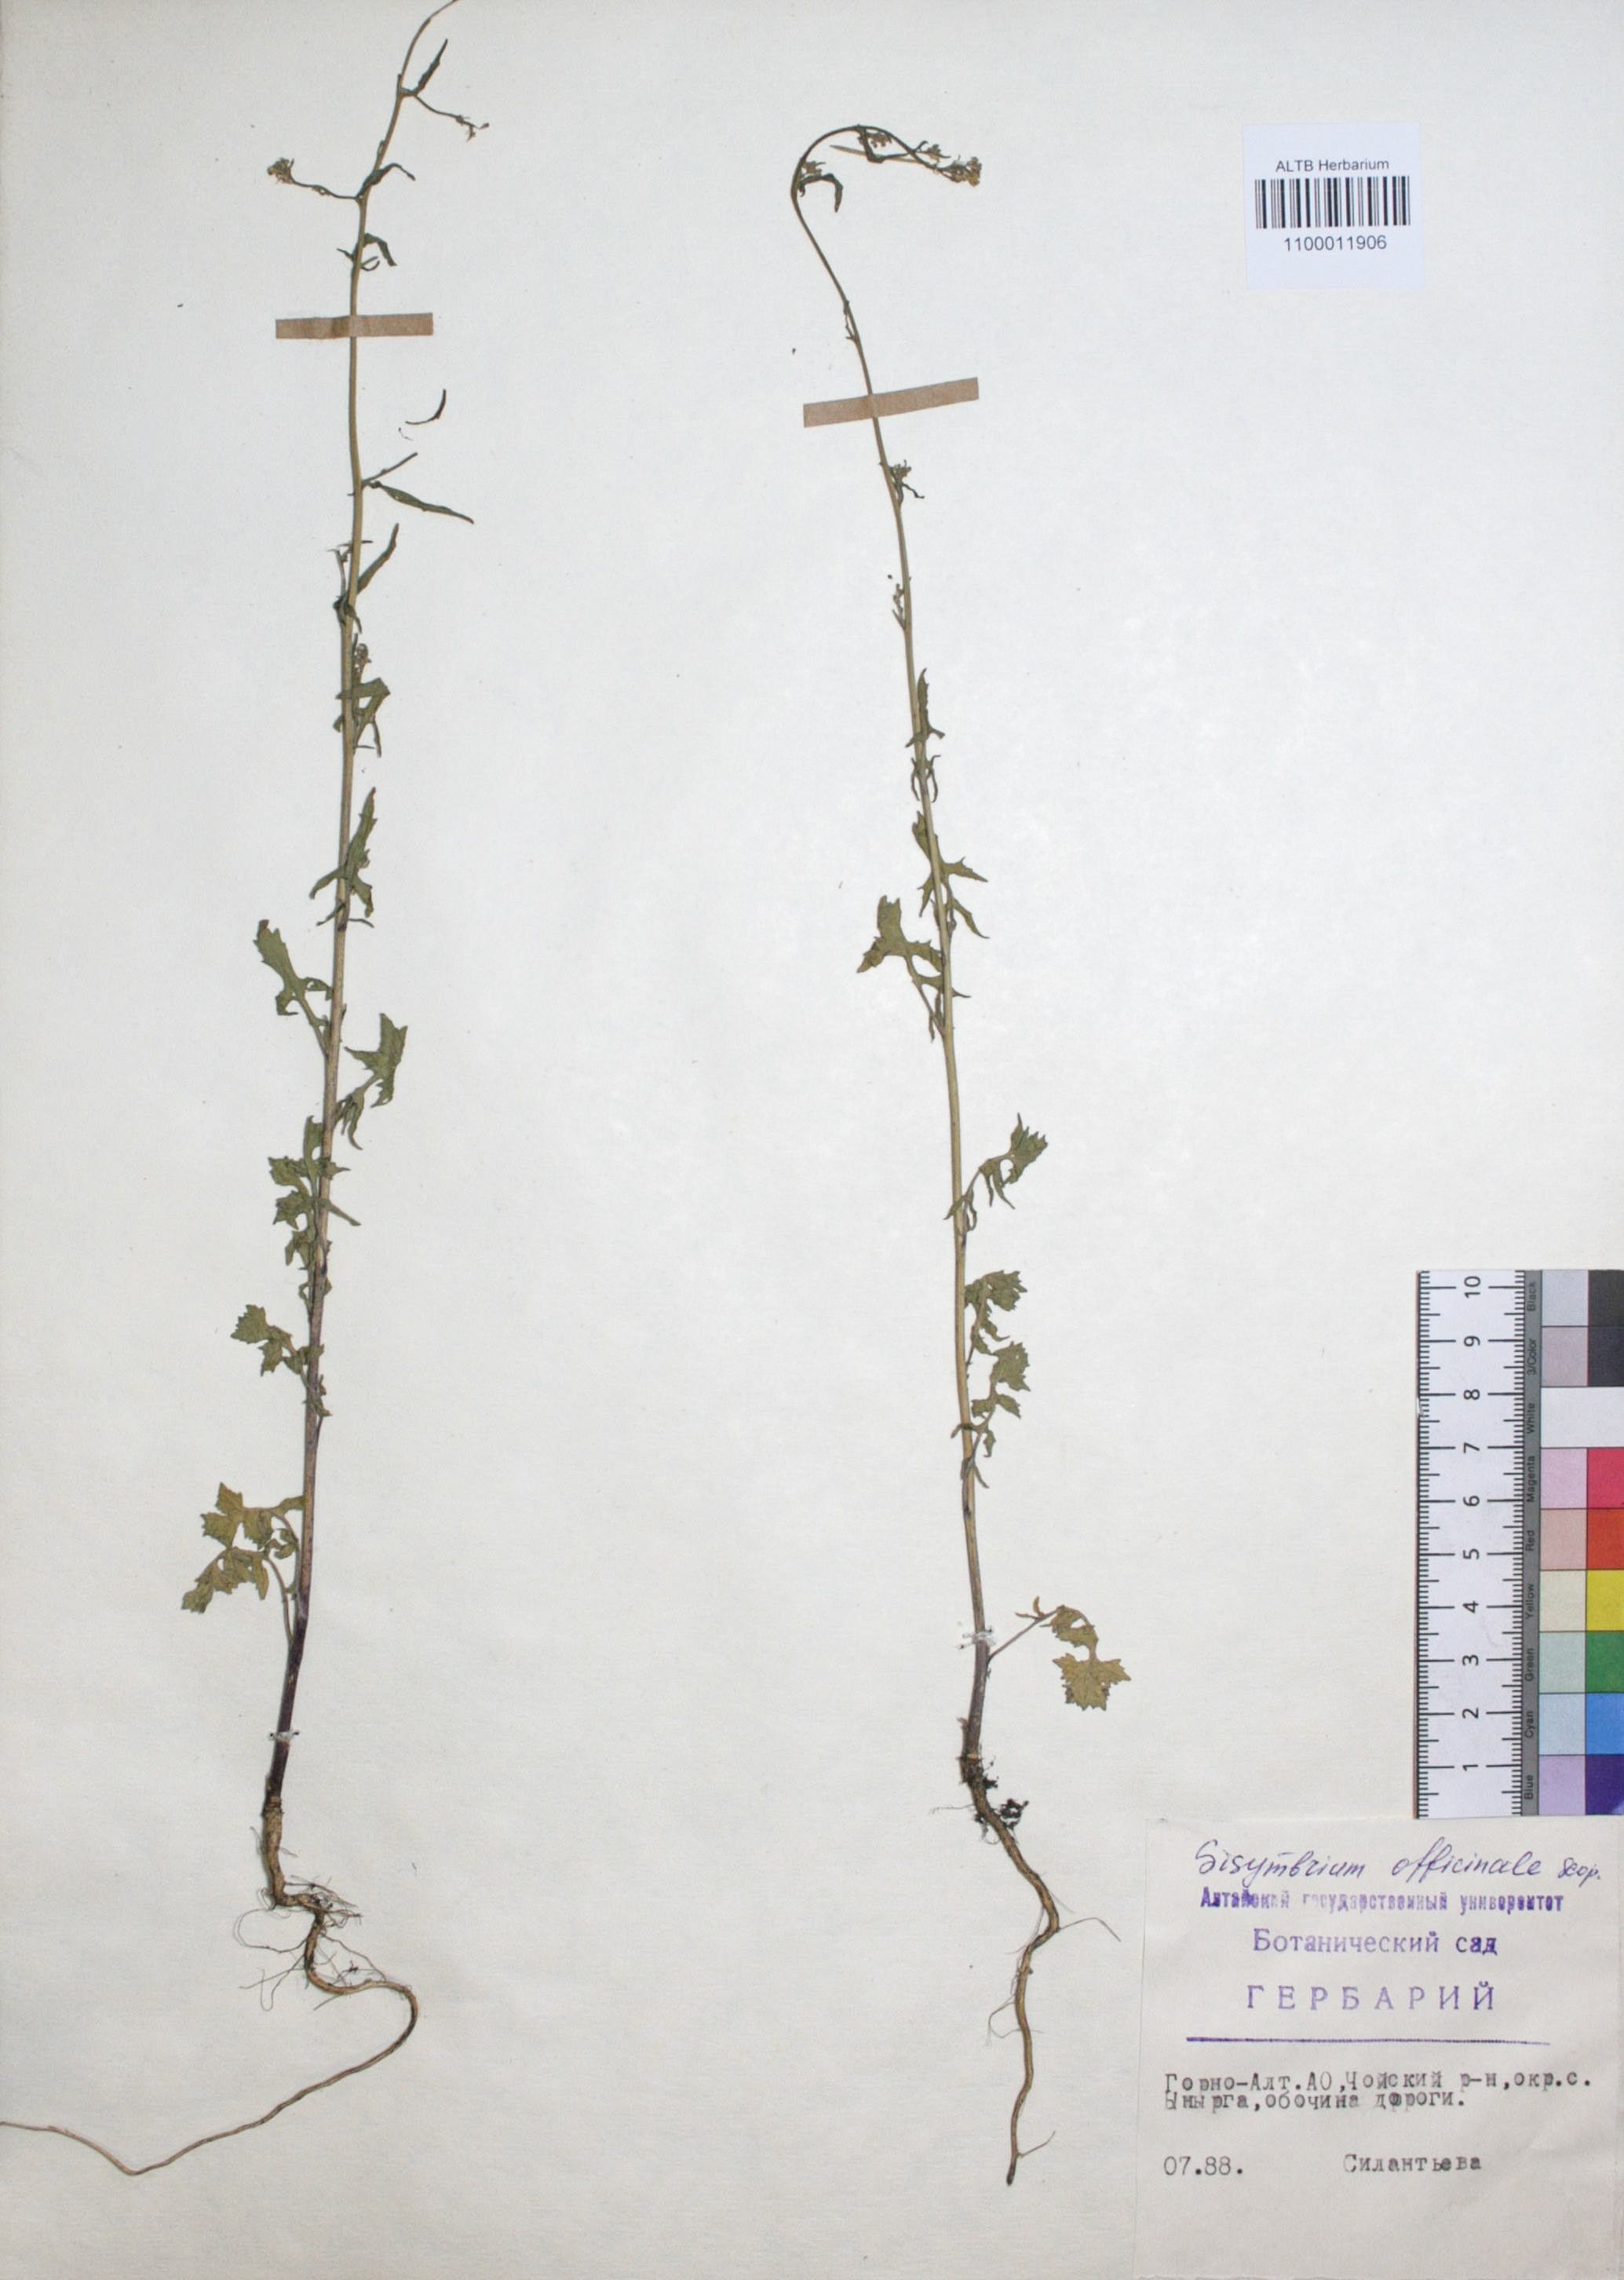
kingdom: Plantae
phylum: Tracheophyta
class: Magnoliopsida
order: Brassicales
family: Brassicaceae
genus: Sisymbrium
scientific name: Sisymbrium officinale
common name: Hedge mustard
